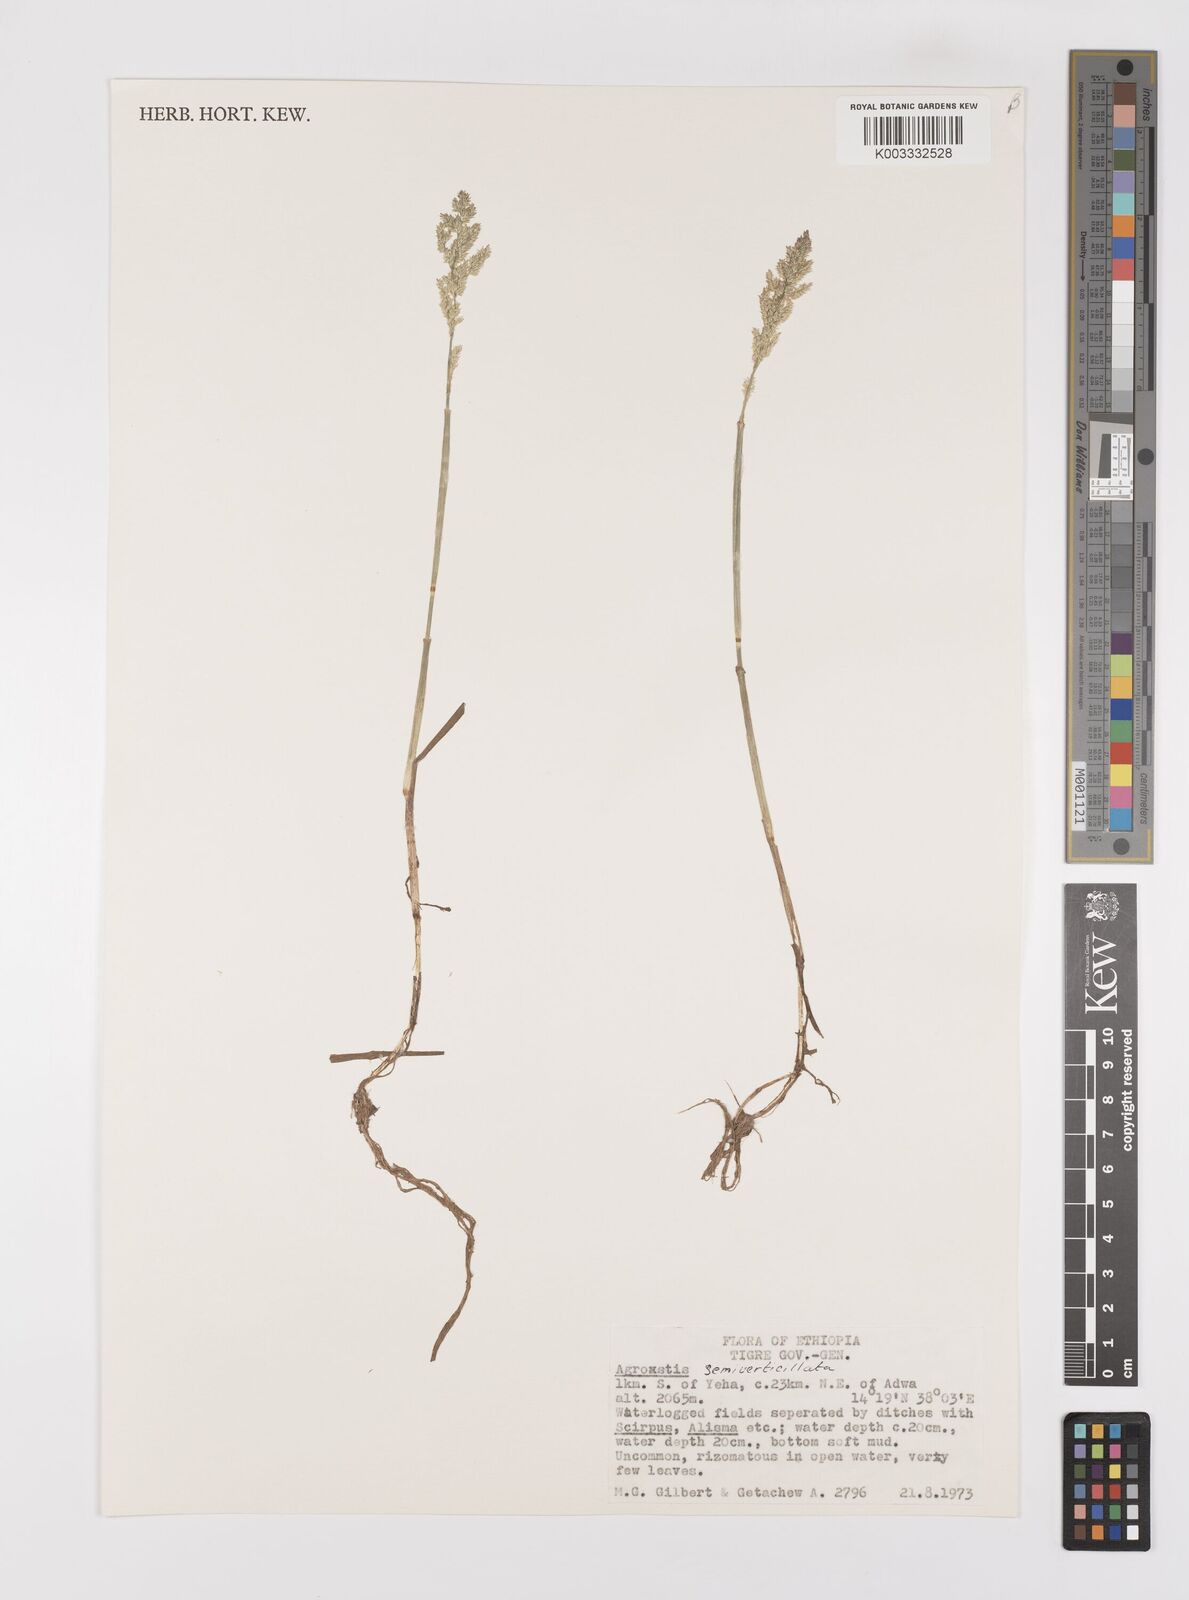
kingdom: Plantae
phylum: Tracheophyta
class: Liliopsida
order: Poales
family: Poaceae
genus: Polypogon
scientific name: Polypogon viridis
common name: Water bent
